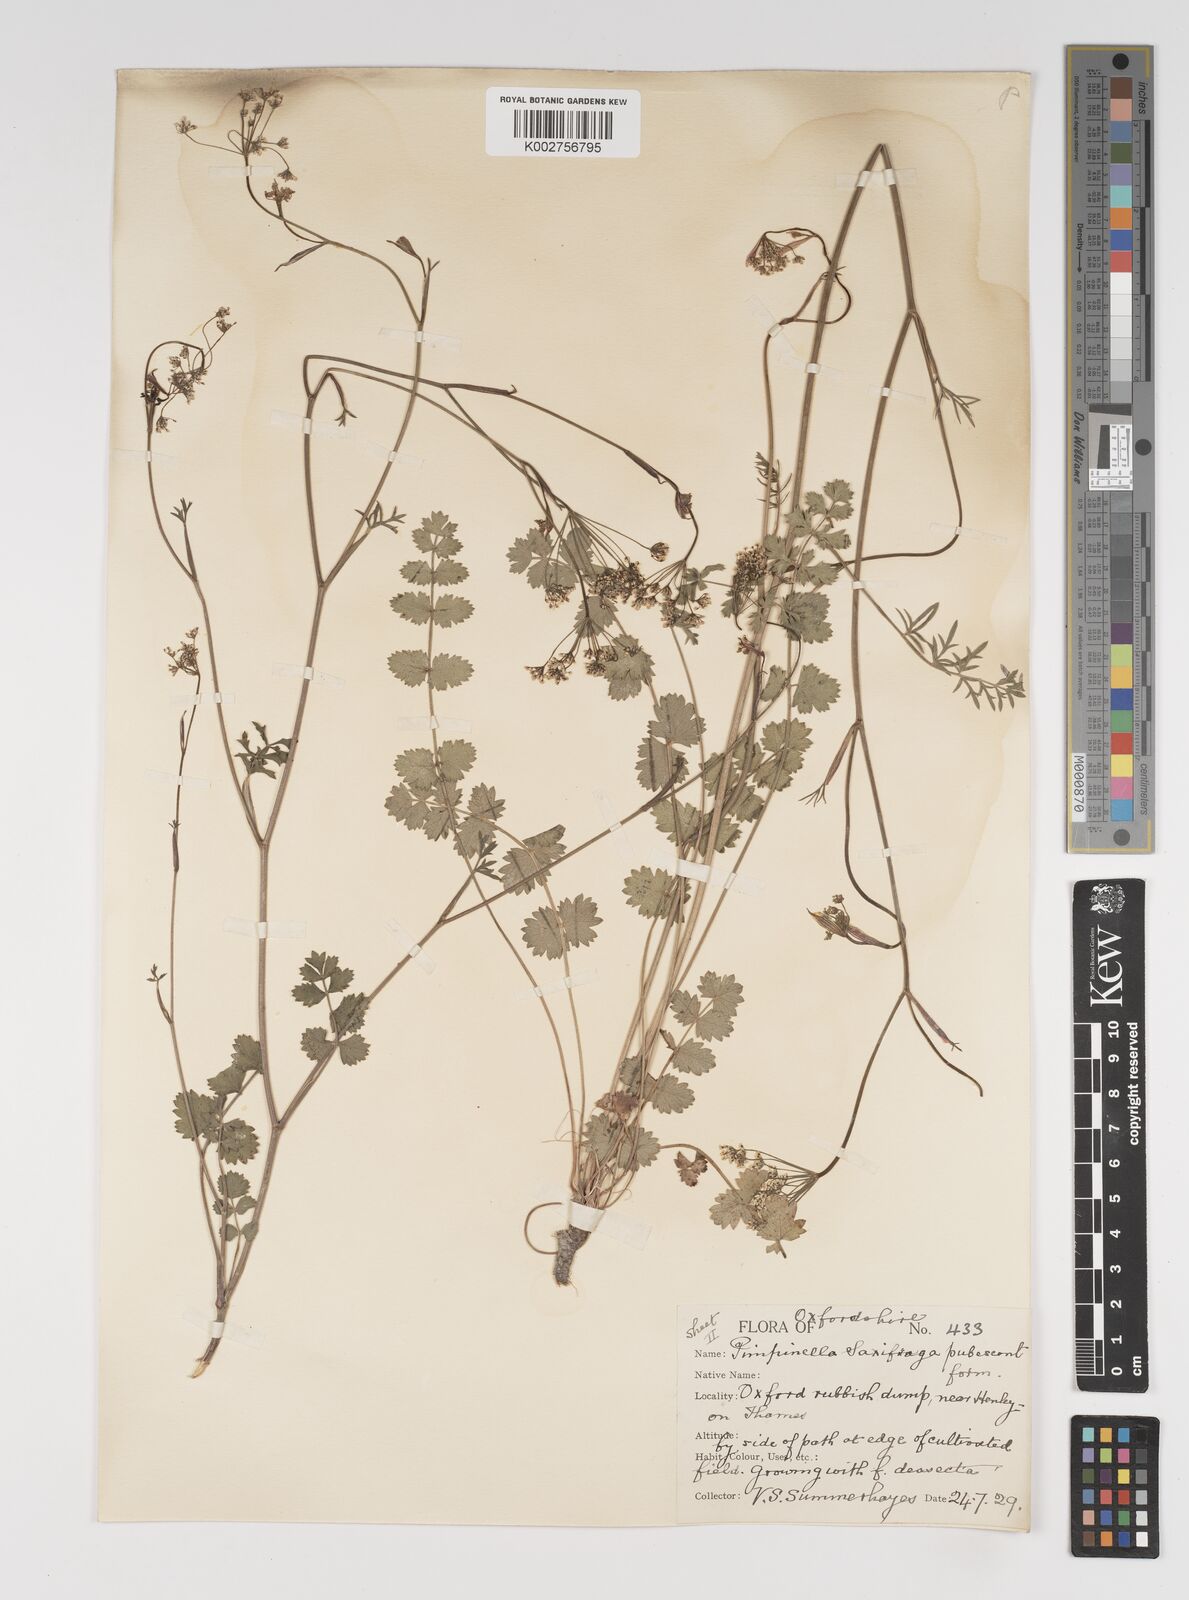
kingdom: Plantae
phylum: Tracheophyta
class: Magnoliopsida
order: Apiales
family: Apiaceae
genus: Pimpinella
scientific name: Pimpinella saxifraga
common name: Burnet-saxifrage
